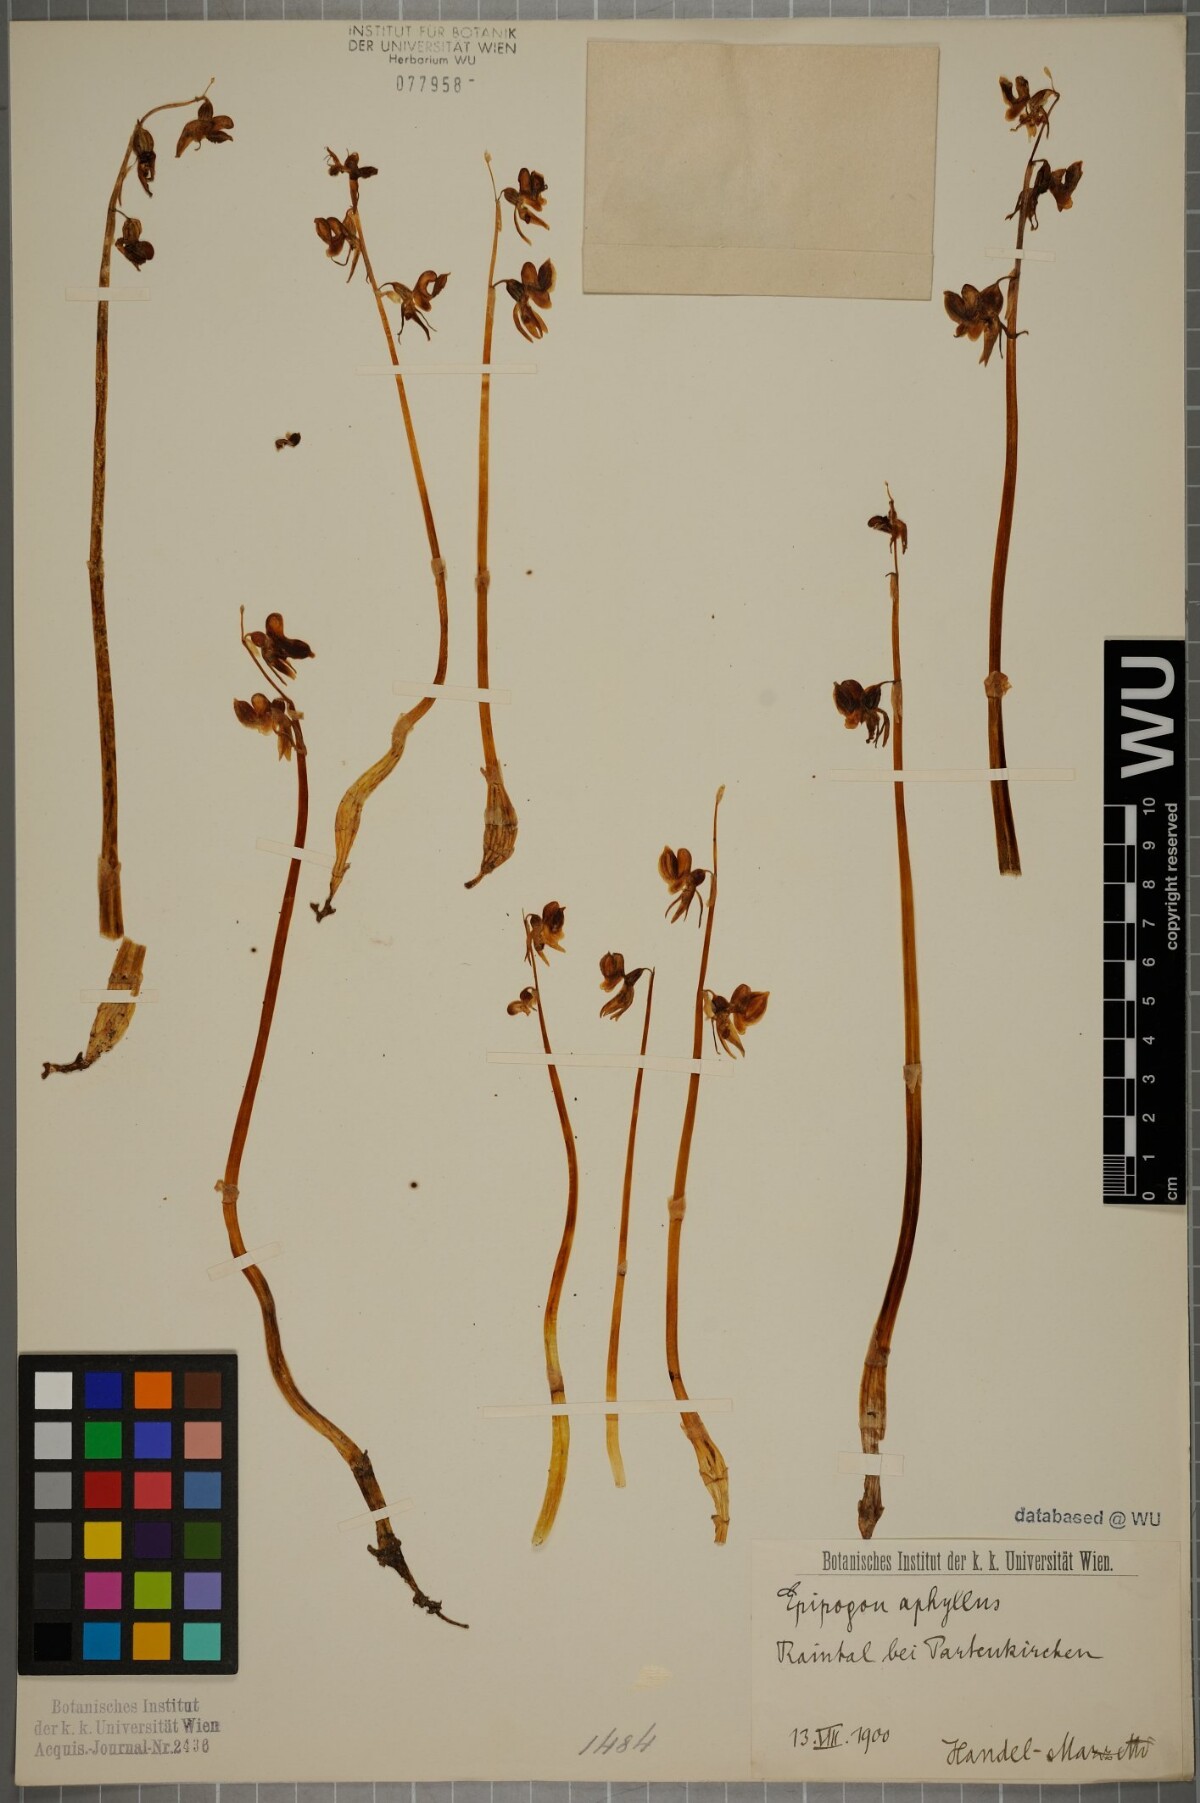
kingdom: Plantae
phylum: Tracheophyta
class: Liliopsida
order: Asparagales
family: Orchidaceae
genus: Epipogium
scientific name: Epipogium aphyllum
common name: Ghost orchid
